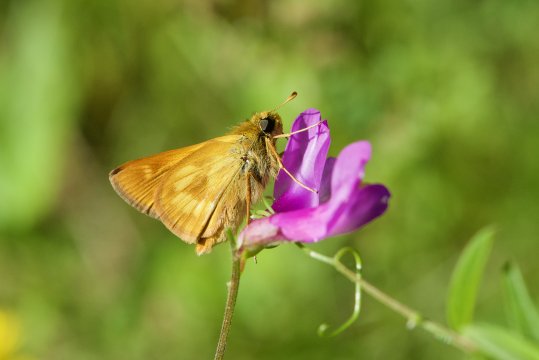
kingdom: Animalia
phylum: Arthropoda
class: Insecta
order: Lepidoptera
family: Hesperiidae
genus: Polites
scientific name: Polites
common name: Long Dash Skipper
